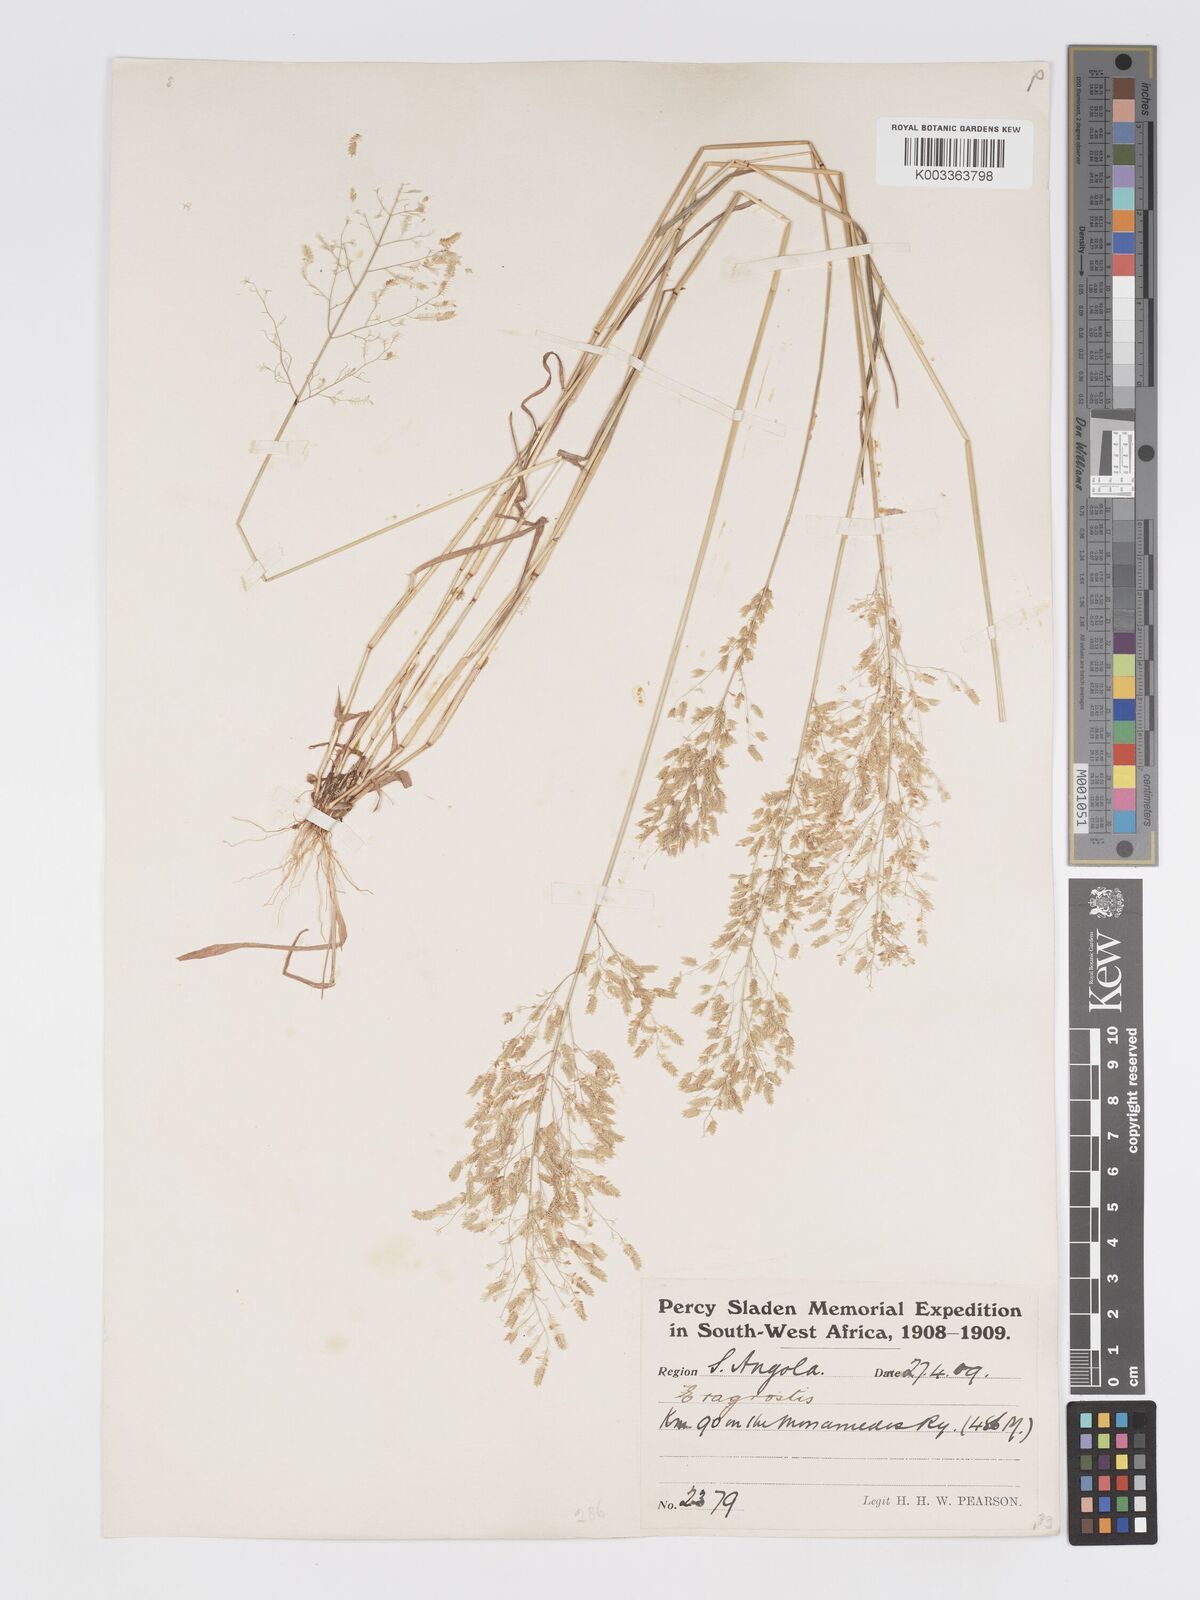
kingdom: Plantae
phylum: Tracheophyta
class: Liliopsida
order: Poales
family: Poaceae
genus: Eragrostis
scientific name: Eragrostis annulata
